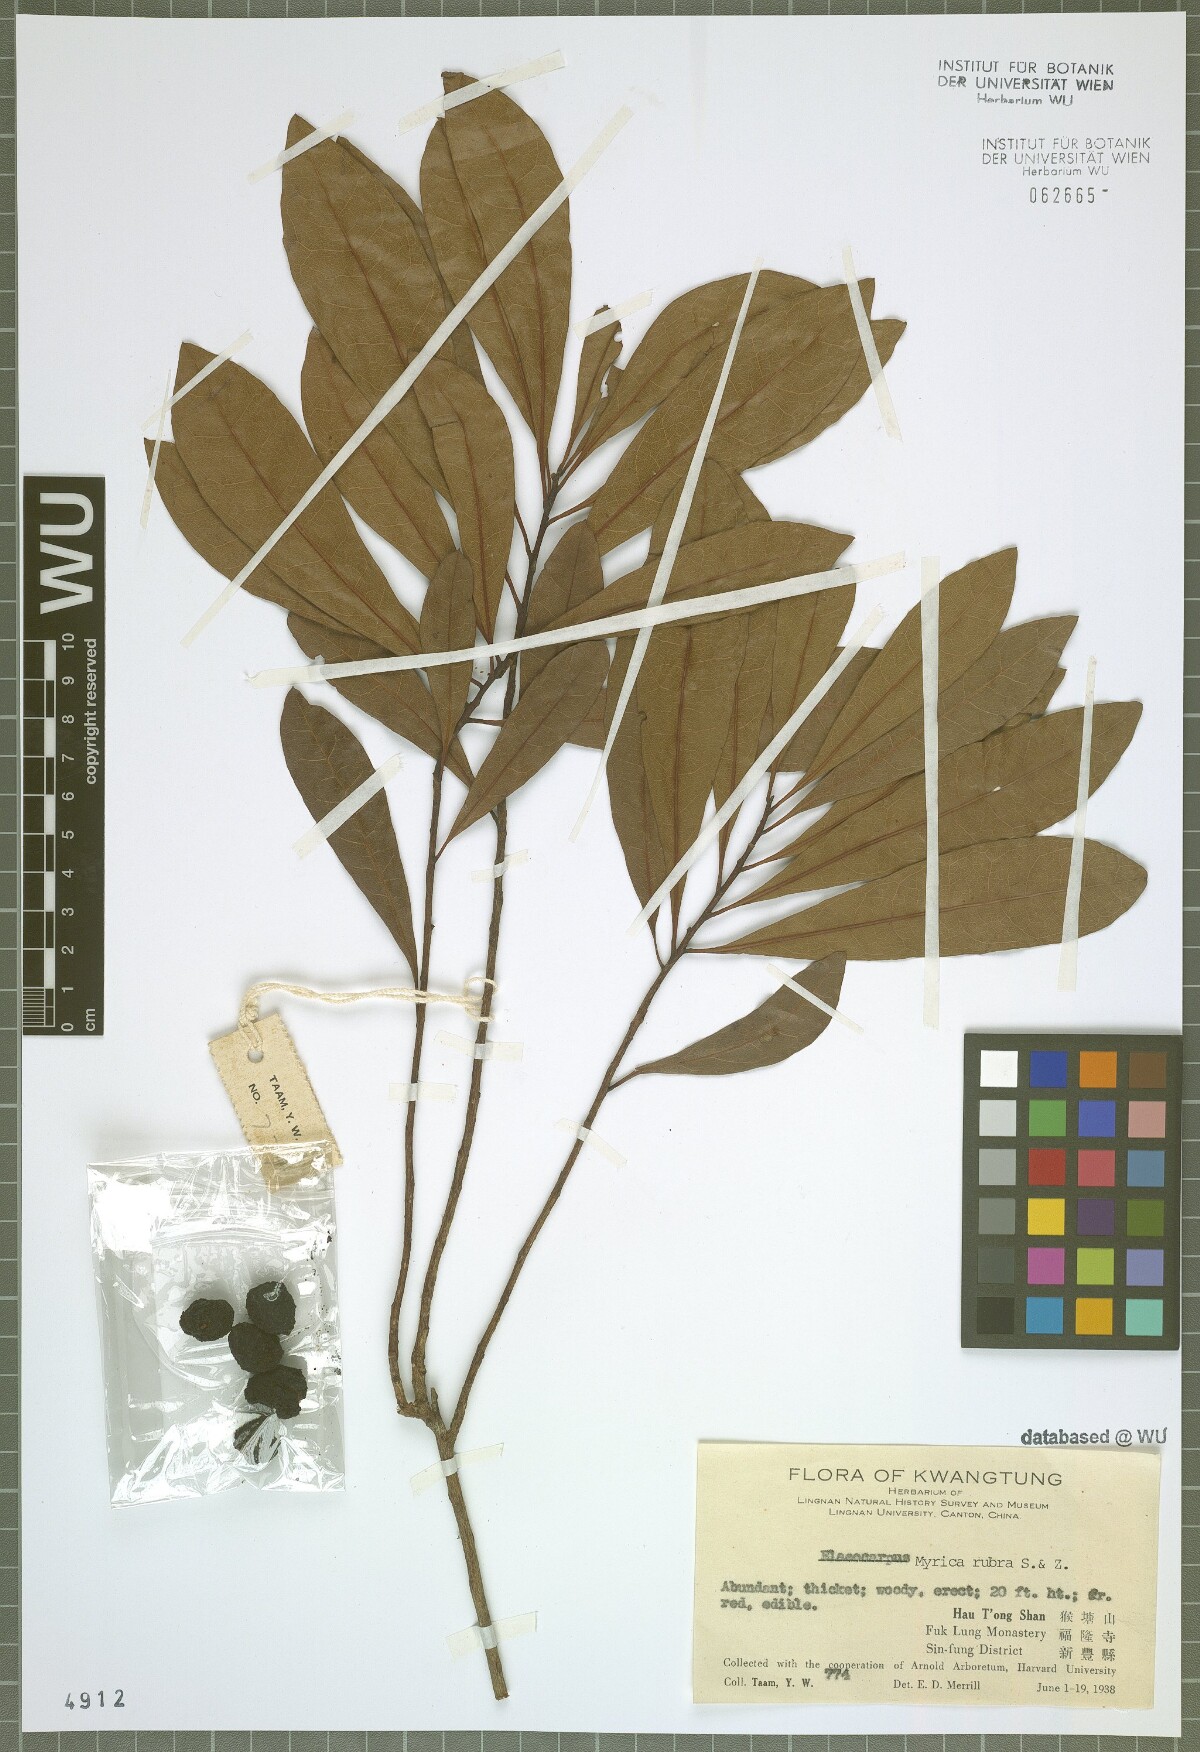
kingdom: Plantae
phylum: Tracheophyta
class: Magnoliopsida
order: Fagales
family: Myricaceae
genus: Morella
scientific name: Morella rubra
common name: Red bayberry
